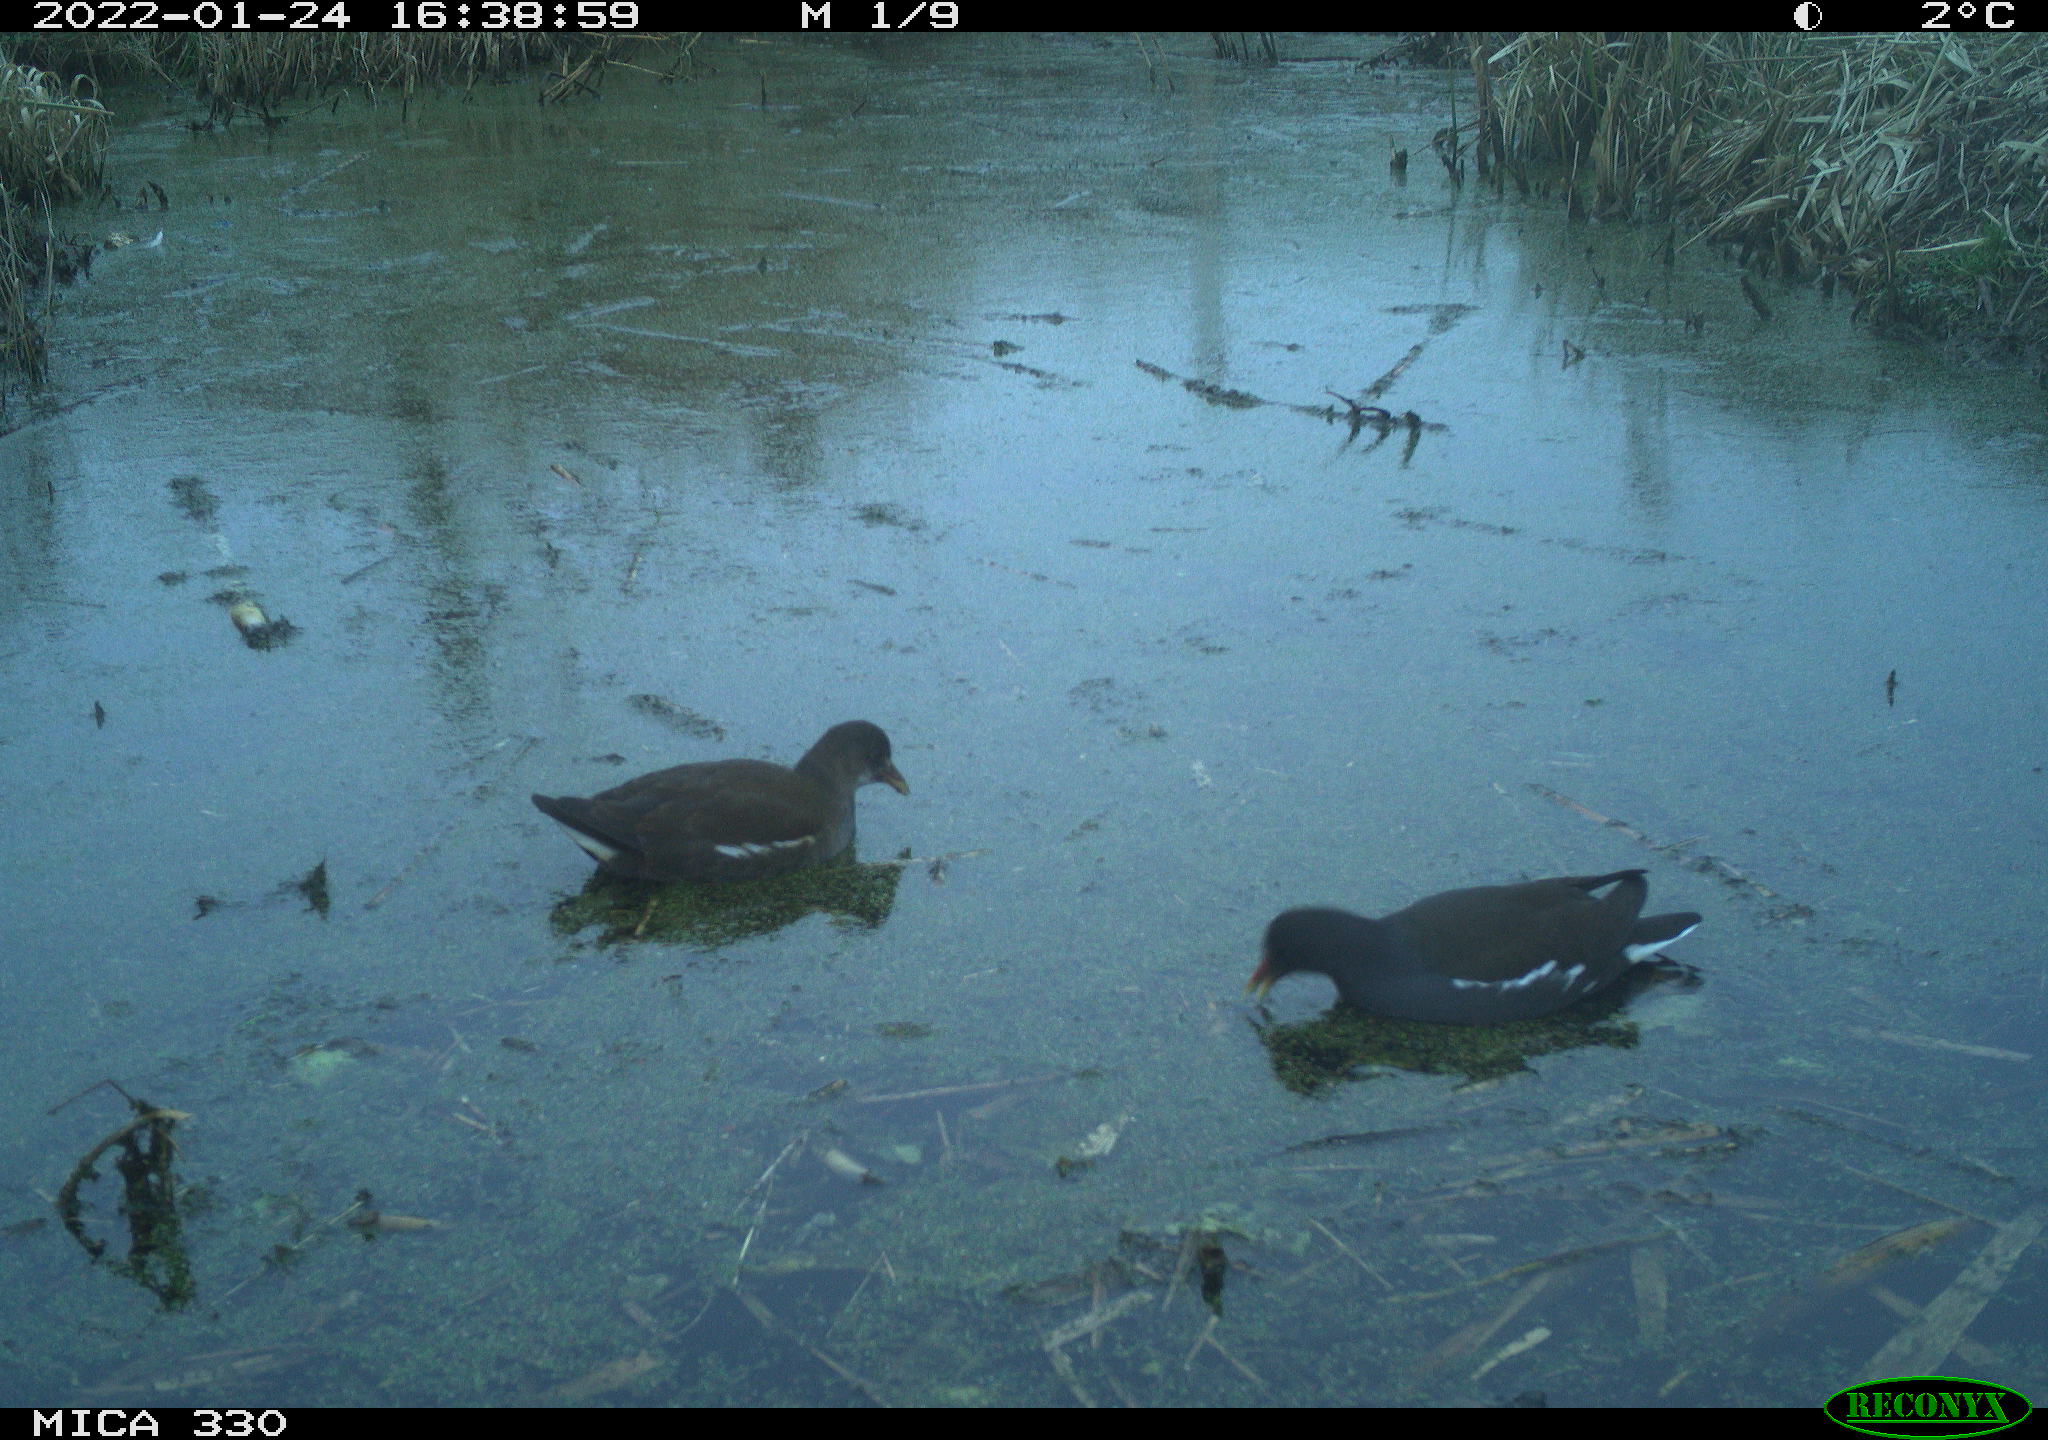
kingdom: Animalia
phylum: Chordata
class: Aves
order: Gruiformes
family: Rallidae
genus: Gallinula
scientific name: Gallinula chloropus
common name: Common moorhen
